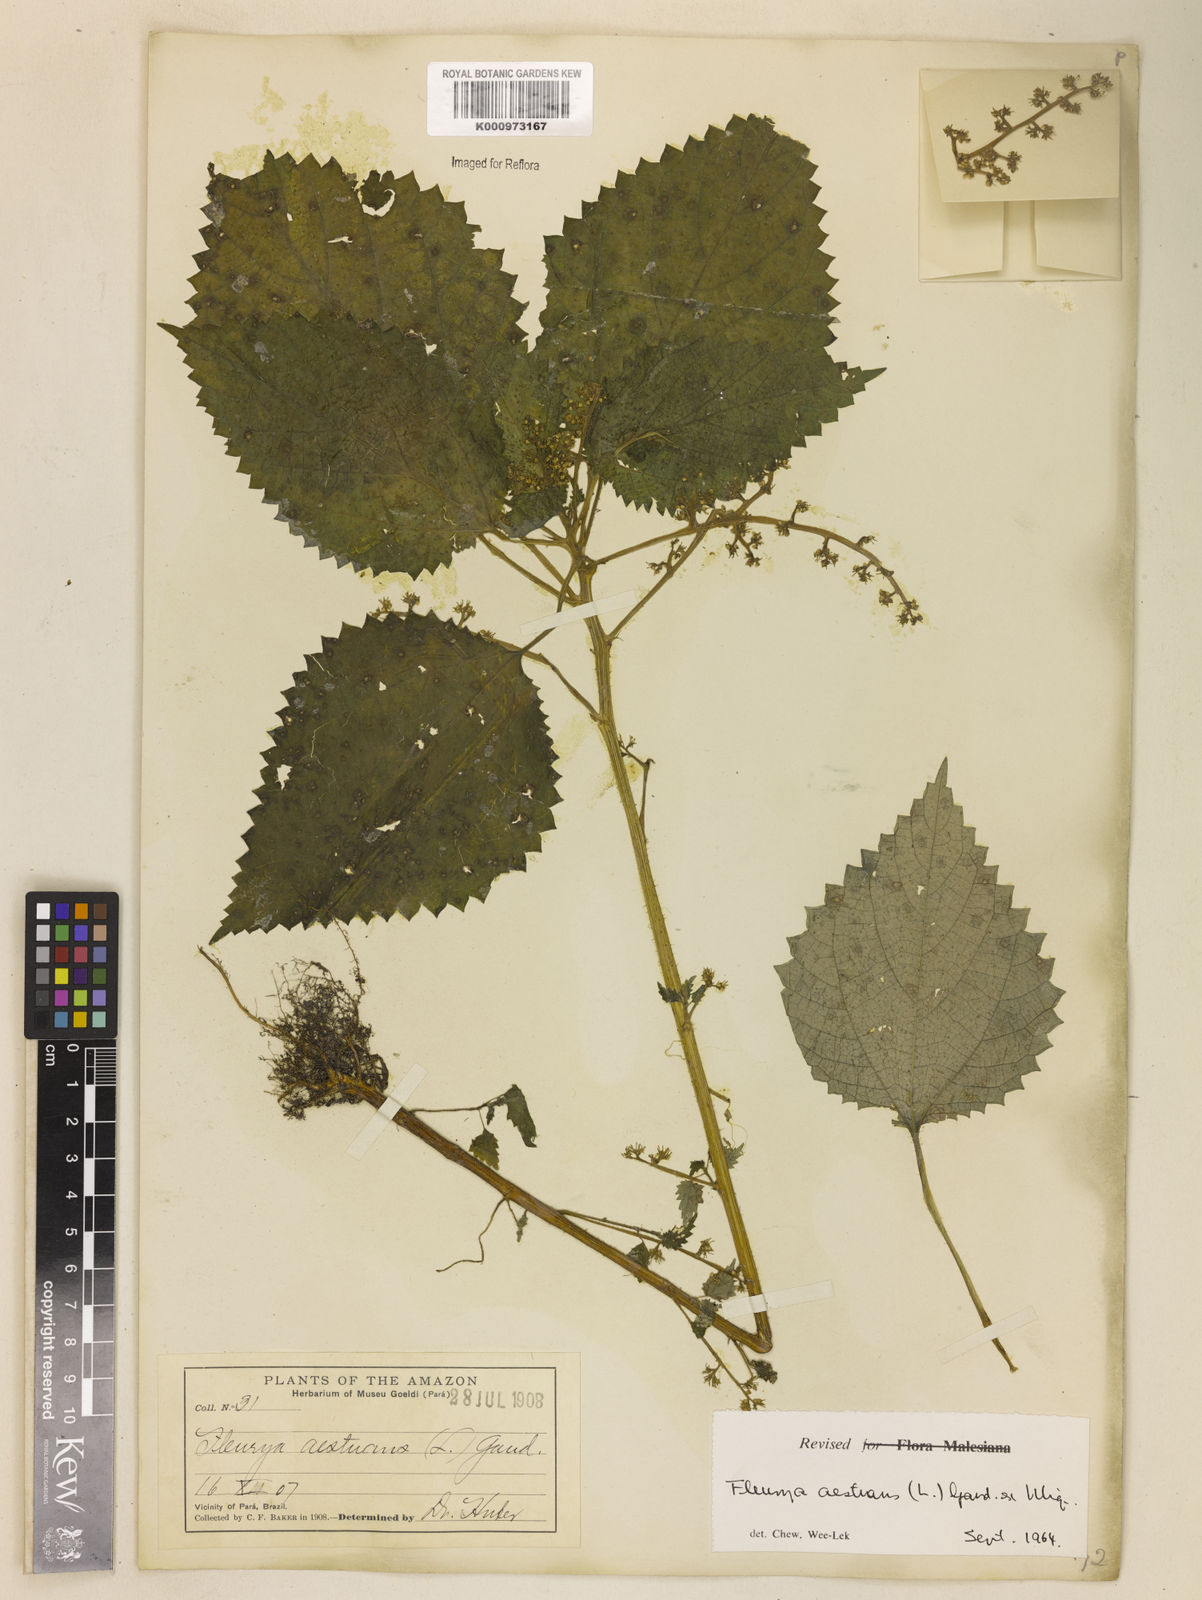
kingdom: Plantae
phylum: Tracheophyta
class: Magnoliopsida
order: Rosales
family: Urticaceae
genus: Laportea
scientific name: Laportea aestuans
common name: West indian woodnettle
